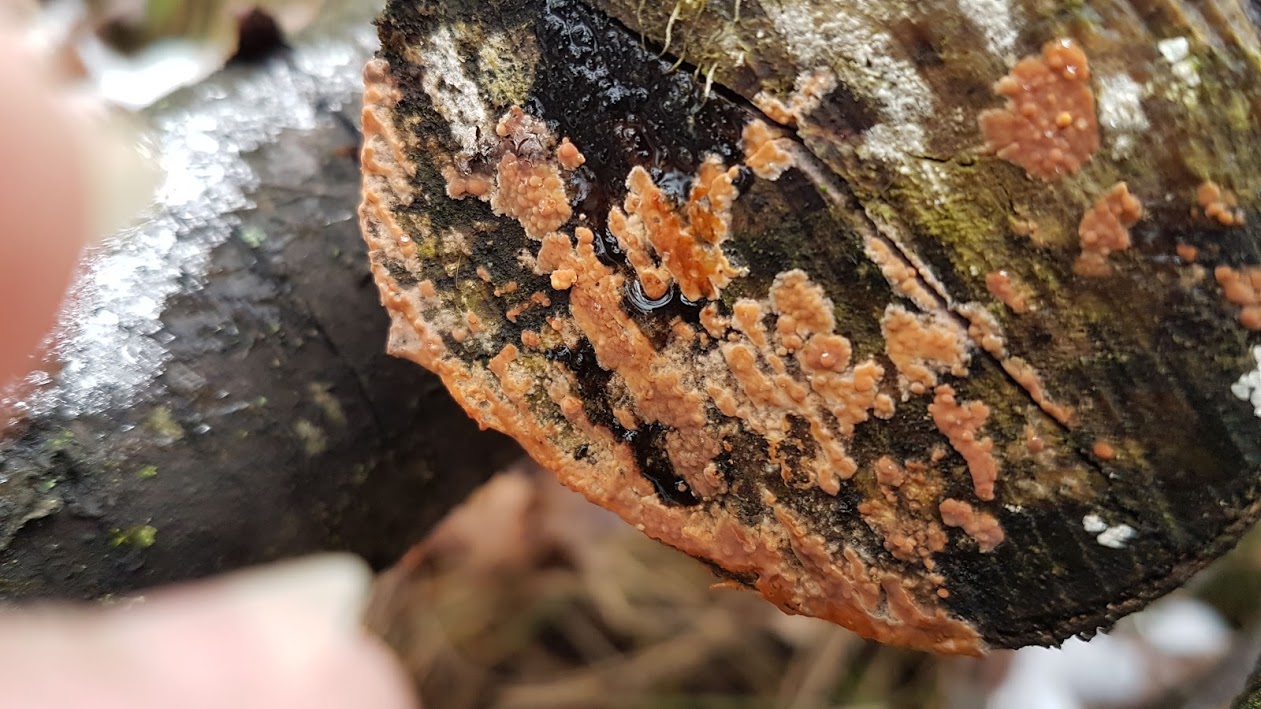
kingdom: Fungi
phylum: Basidiomycota
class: Agaricomycetes
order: Russulales
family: Peniophoraceae
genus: Peniophora
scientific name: Peniophora incarnata
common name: laksefarvet voksskind
